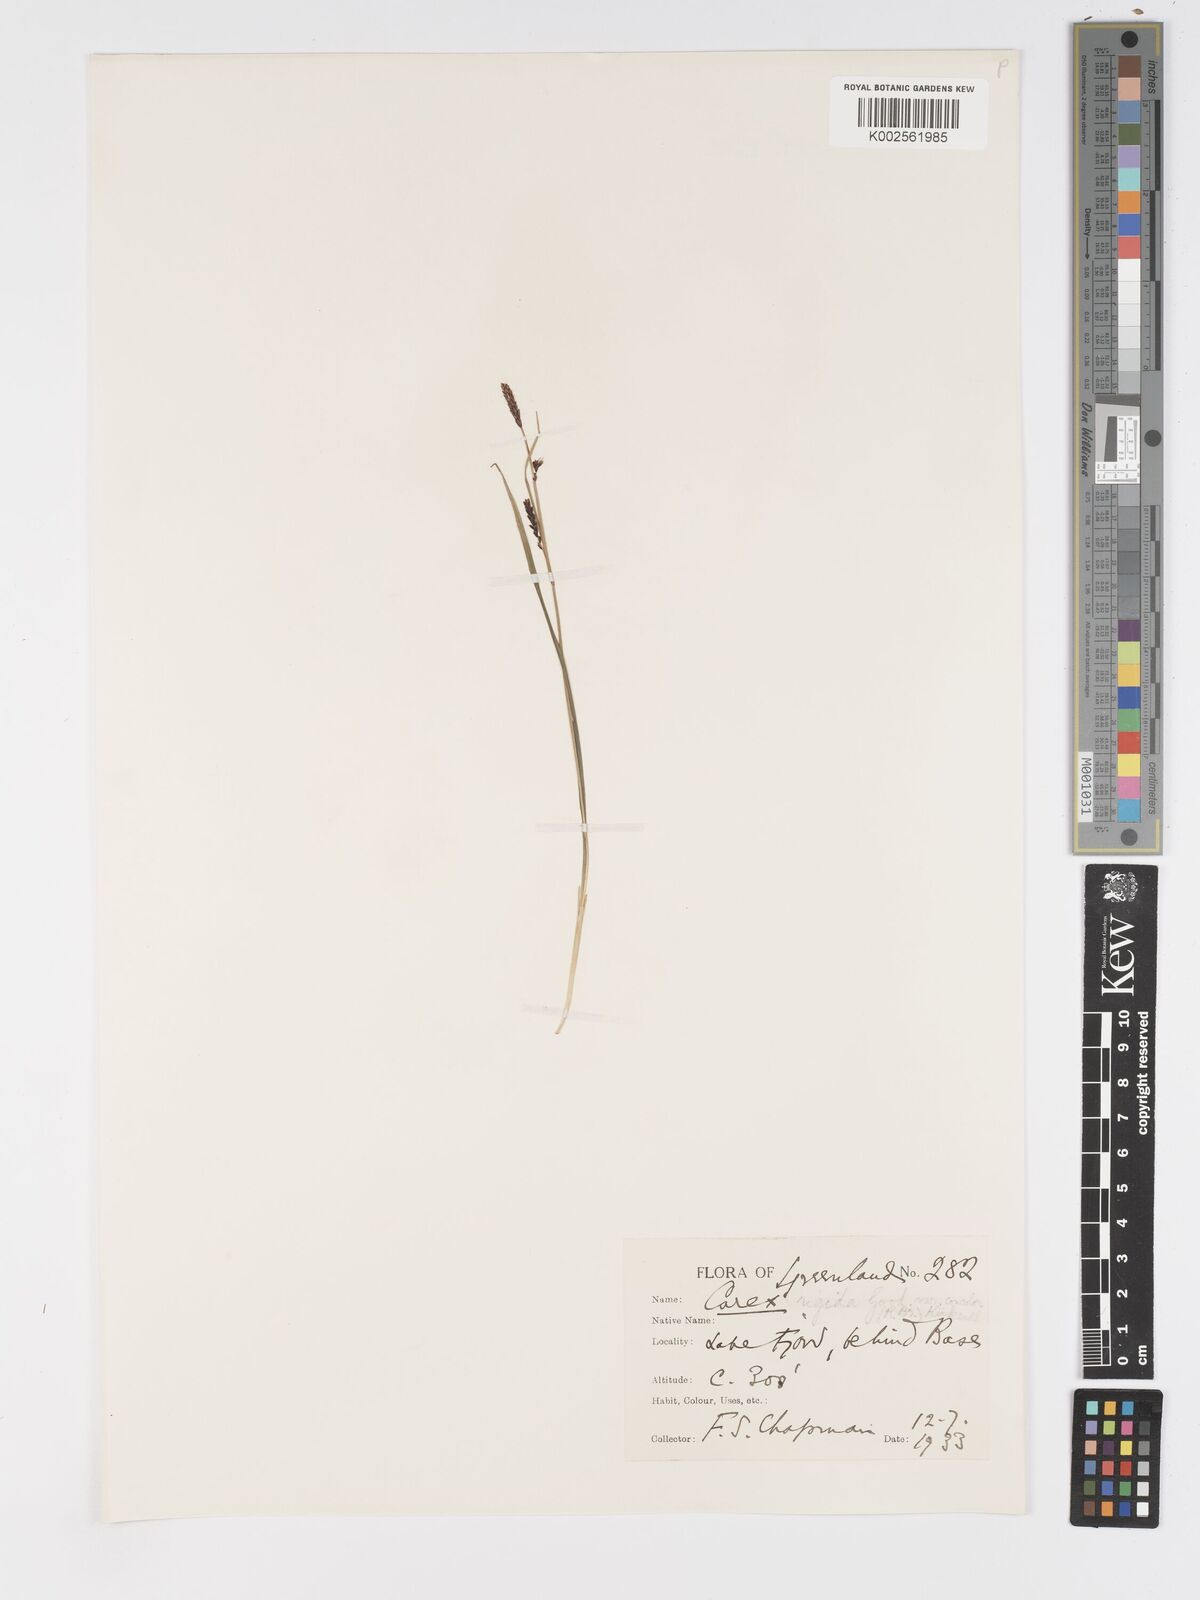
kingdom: Plantae
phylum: Tracheophyta
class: Liliopsida
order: Poales
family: Cyperaceae
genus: Carex
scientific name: Carex bigelowii
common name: Stiff sedge
